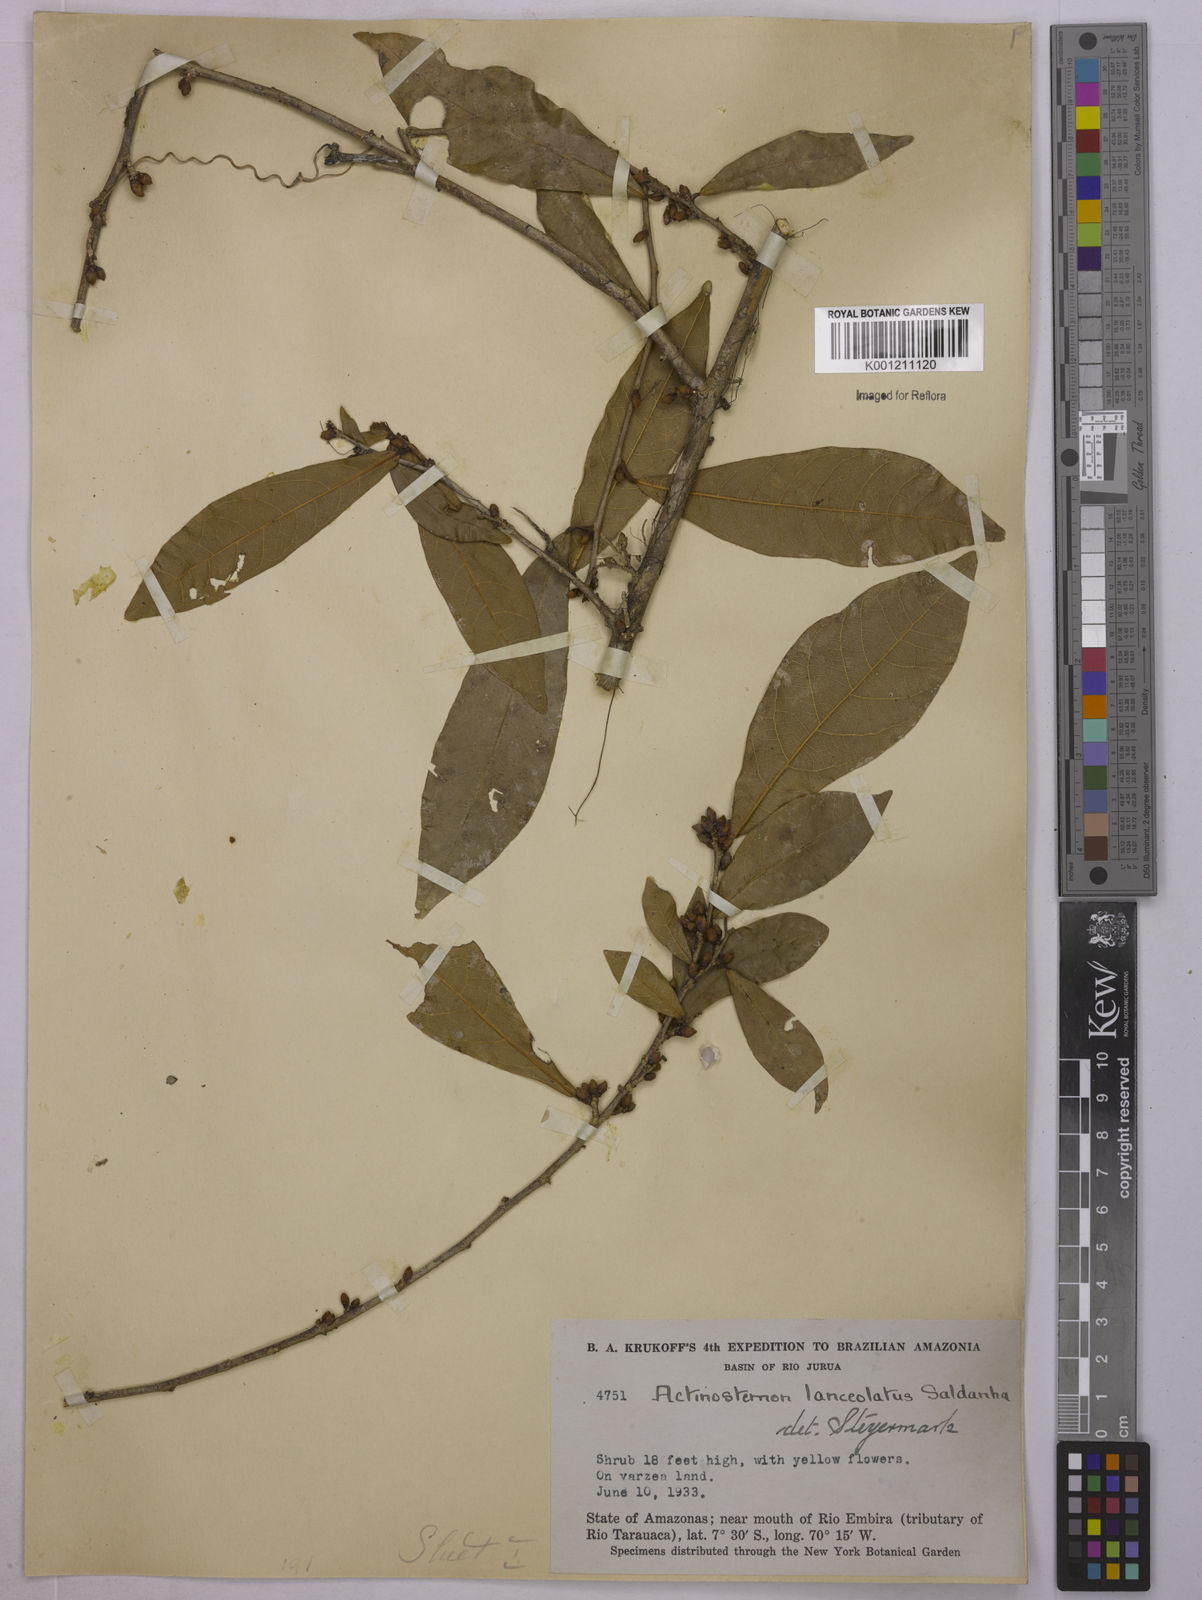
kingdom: Plantae
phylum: Tracheophyta
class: Magnoliopsida
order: Malpighiales
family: Euphorbiaceae
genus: Actinostemon
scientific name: Actinostemon
